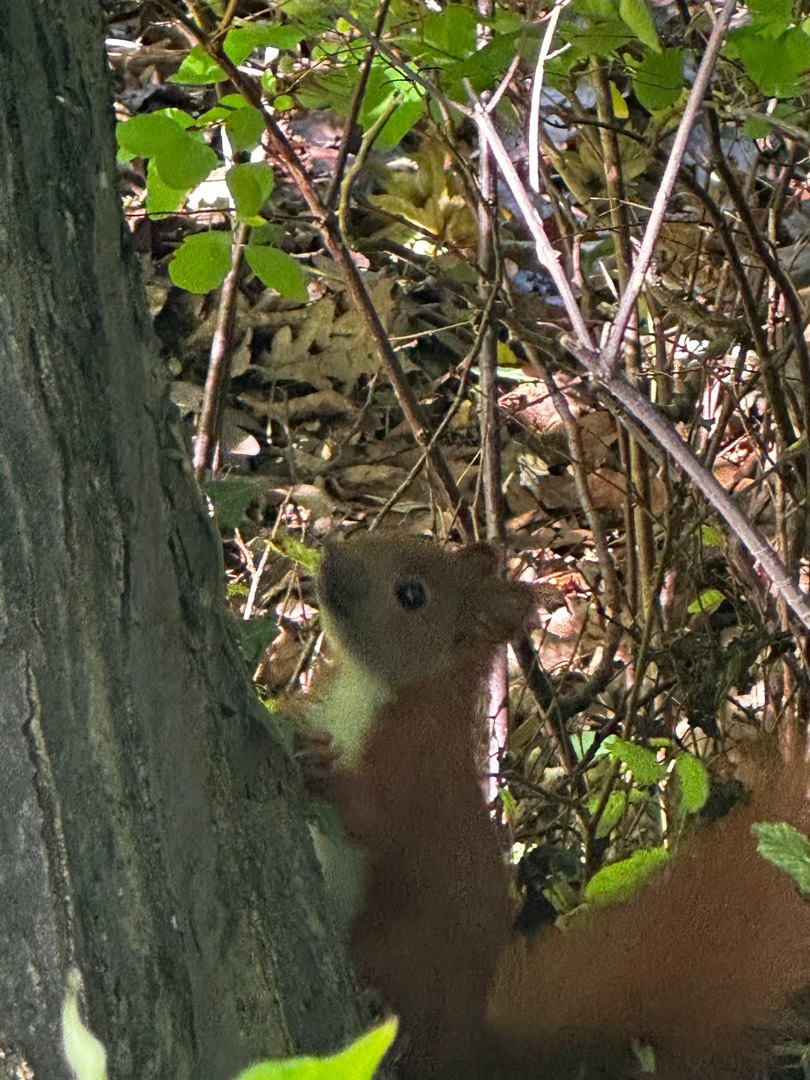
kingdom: Animalia
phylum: Chordata
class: Mammalia
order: Rodentia
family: Sciuridae
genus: Sciurus
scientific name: Sciurus vulgaris
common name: Egern
